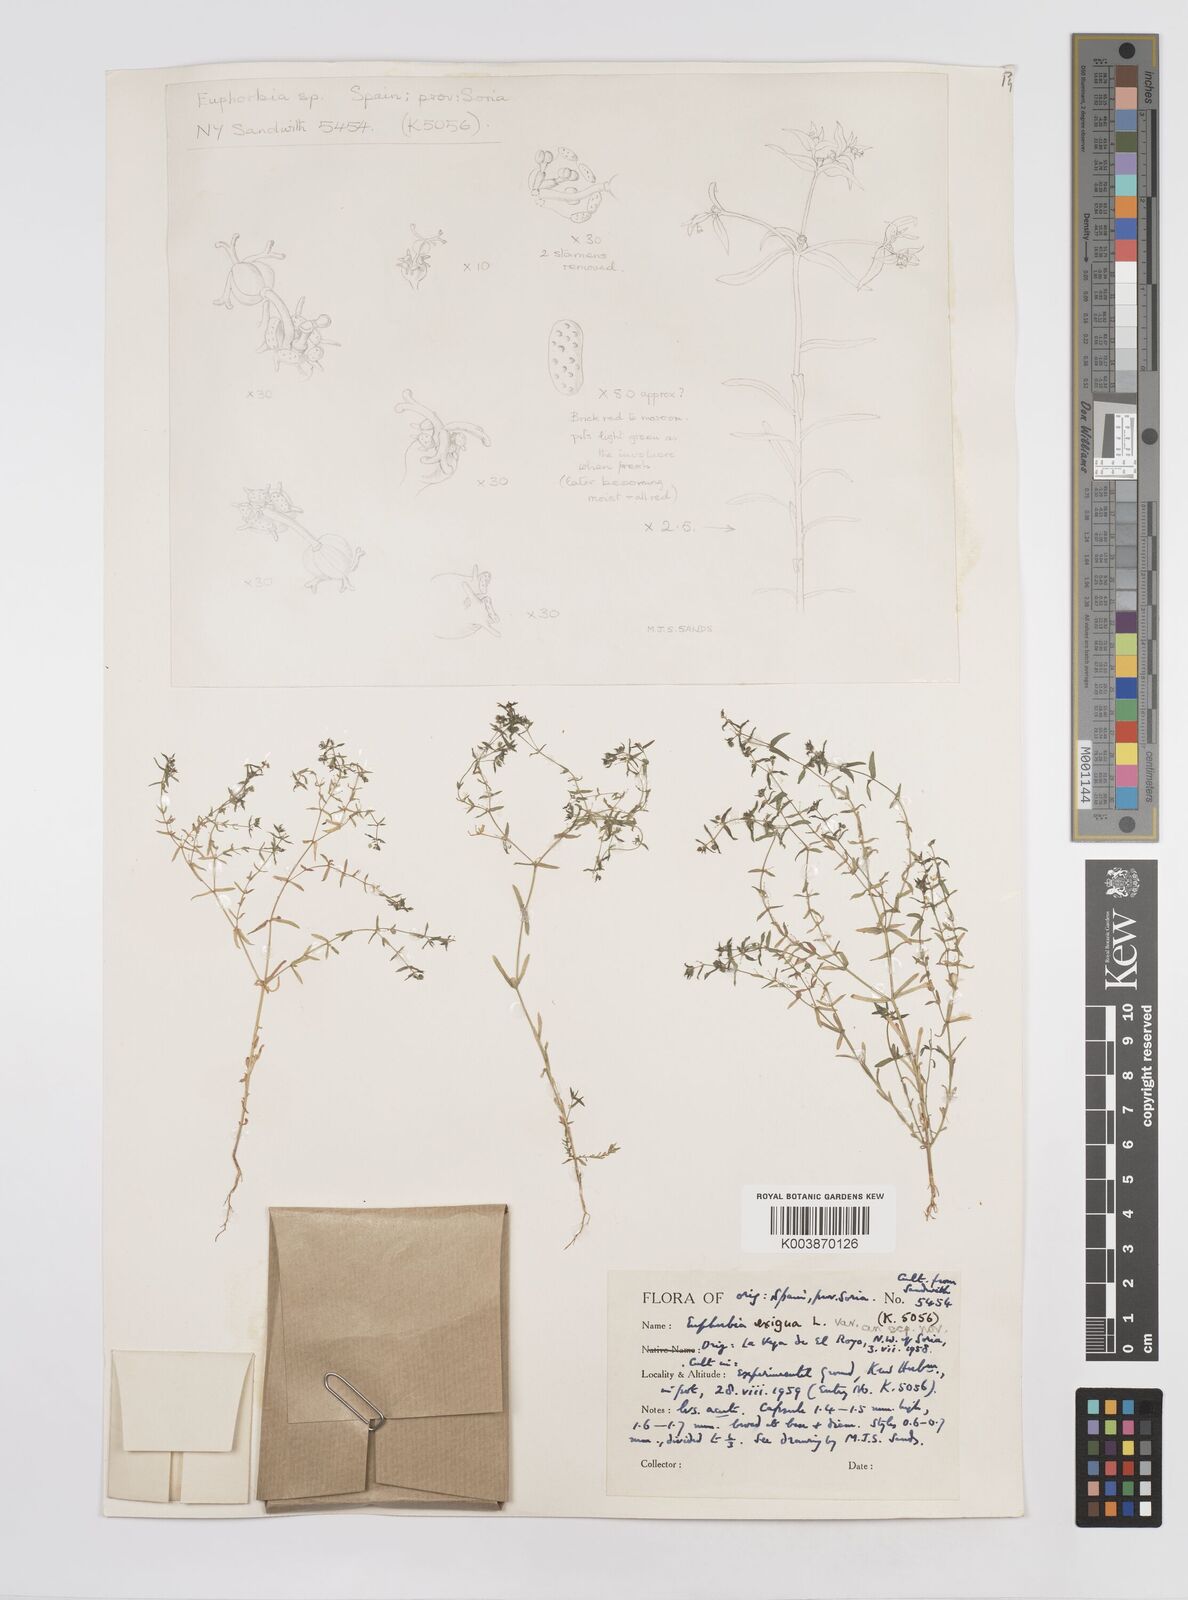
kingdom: Plantae
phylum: Tracheophyta
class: Magnoliopsida
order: Malpighiales
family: Euphorbiaceae
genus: Euphorbia
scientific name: Euphorbia exigua
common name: Dwarf spurge
